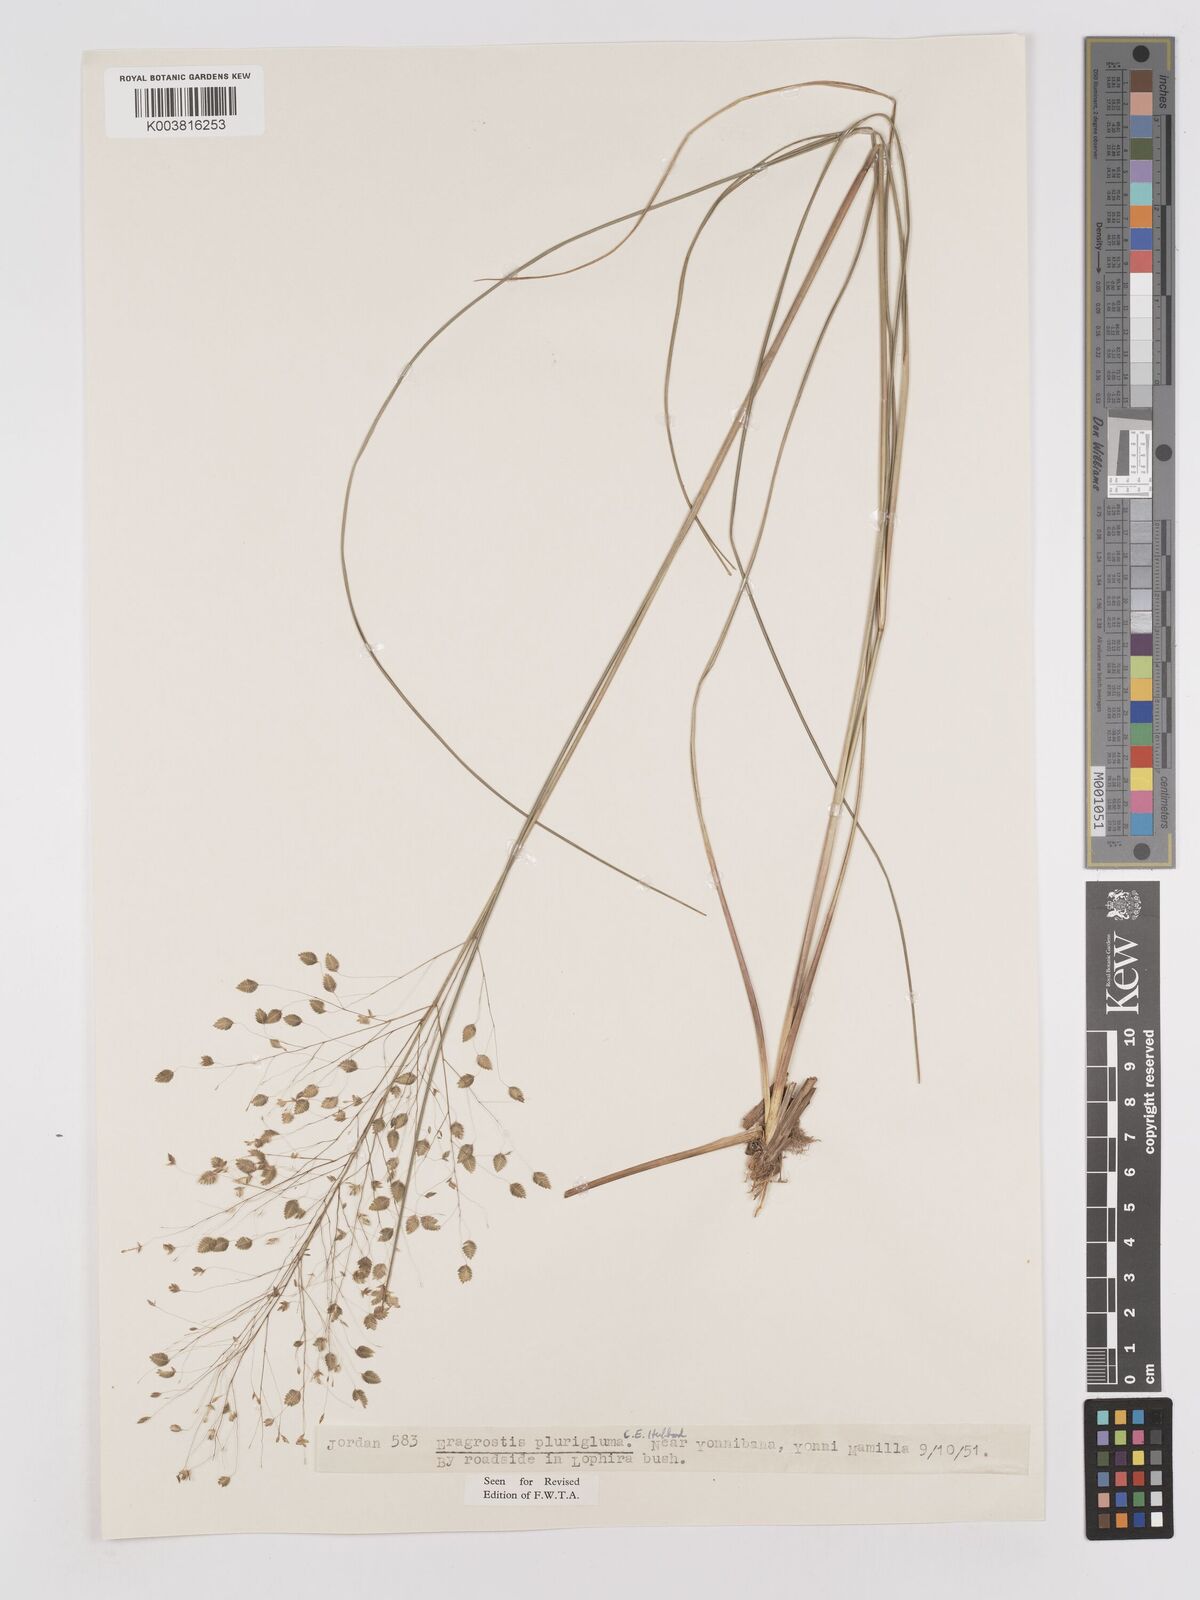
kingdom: Plantae
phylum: Tracheophyta
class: Liliopsida
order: Poales
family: Poaceae
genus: Eragrostis
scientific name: Eragrostis plurigluma
